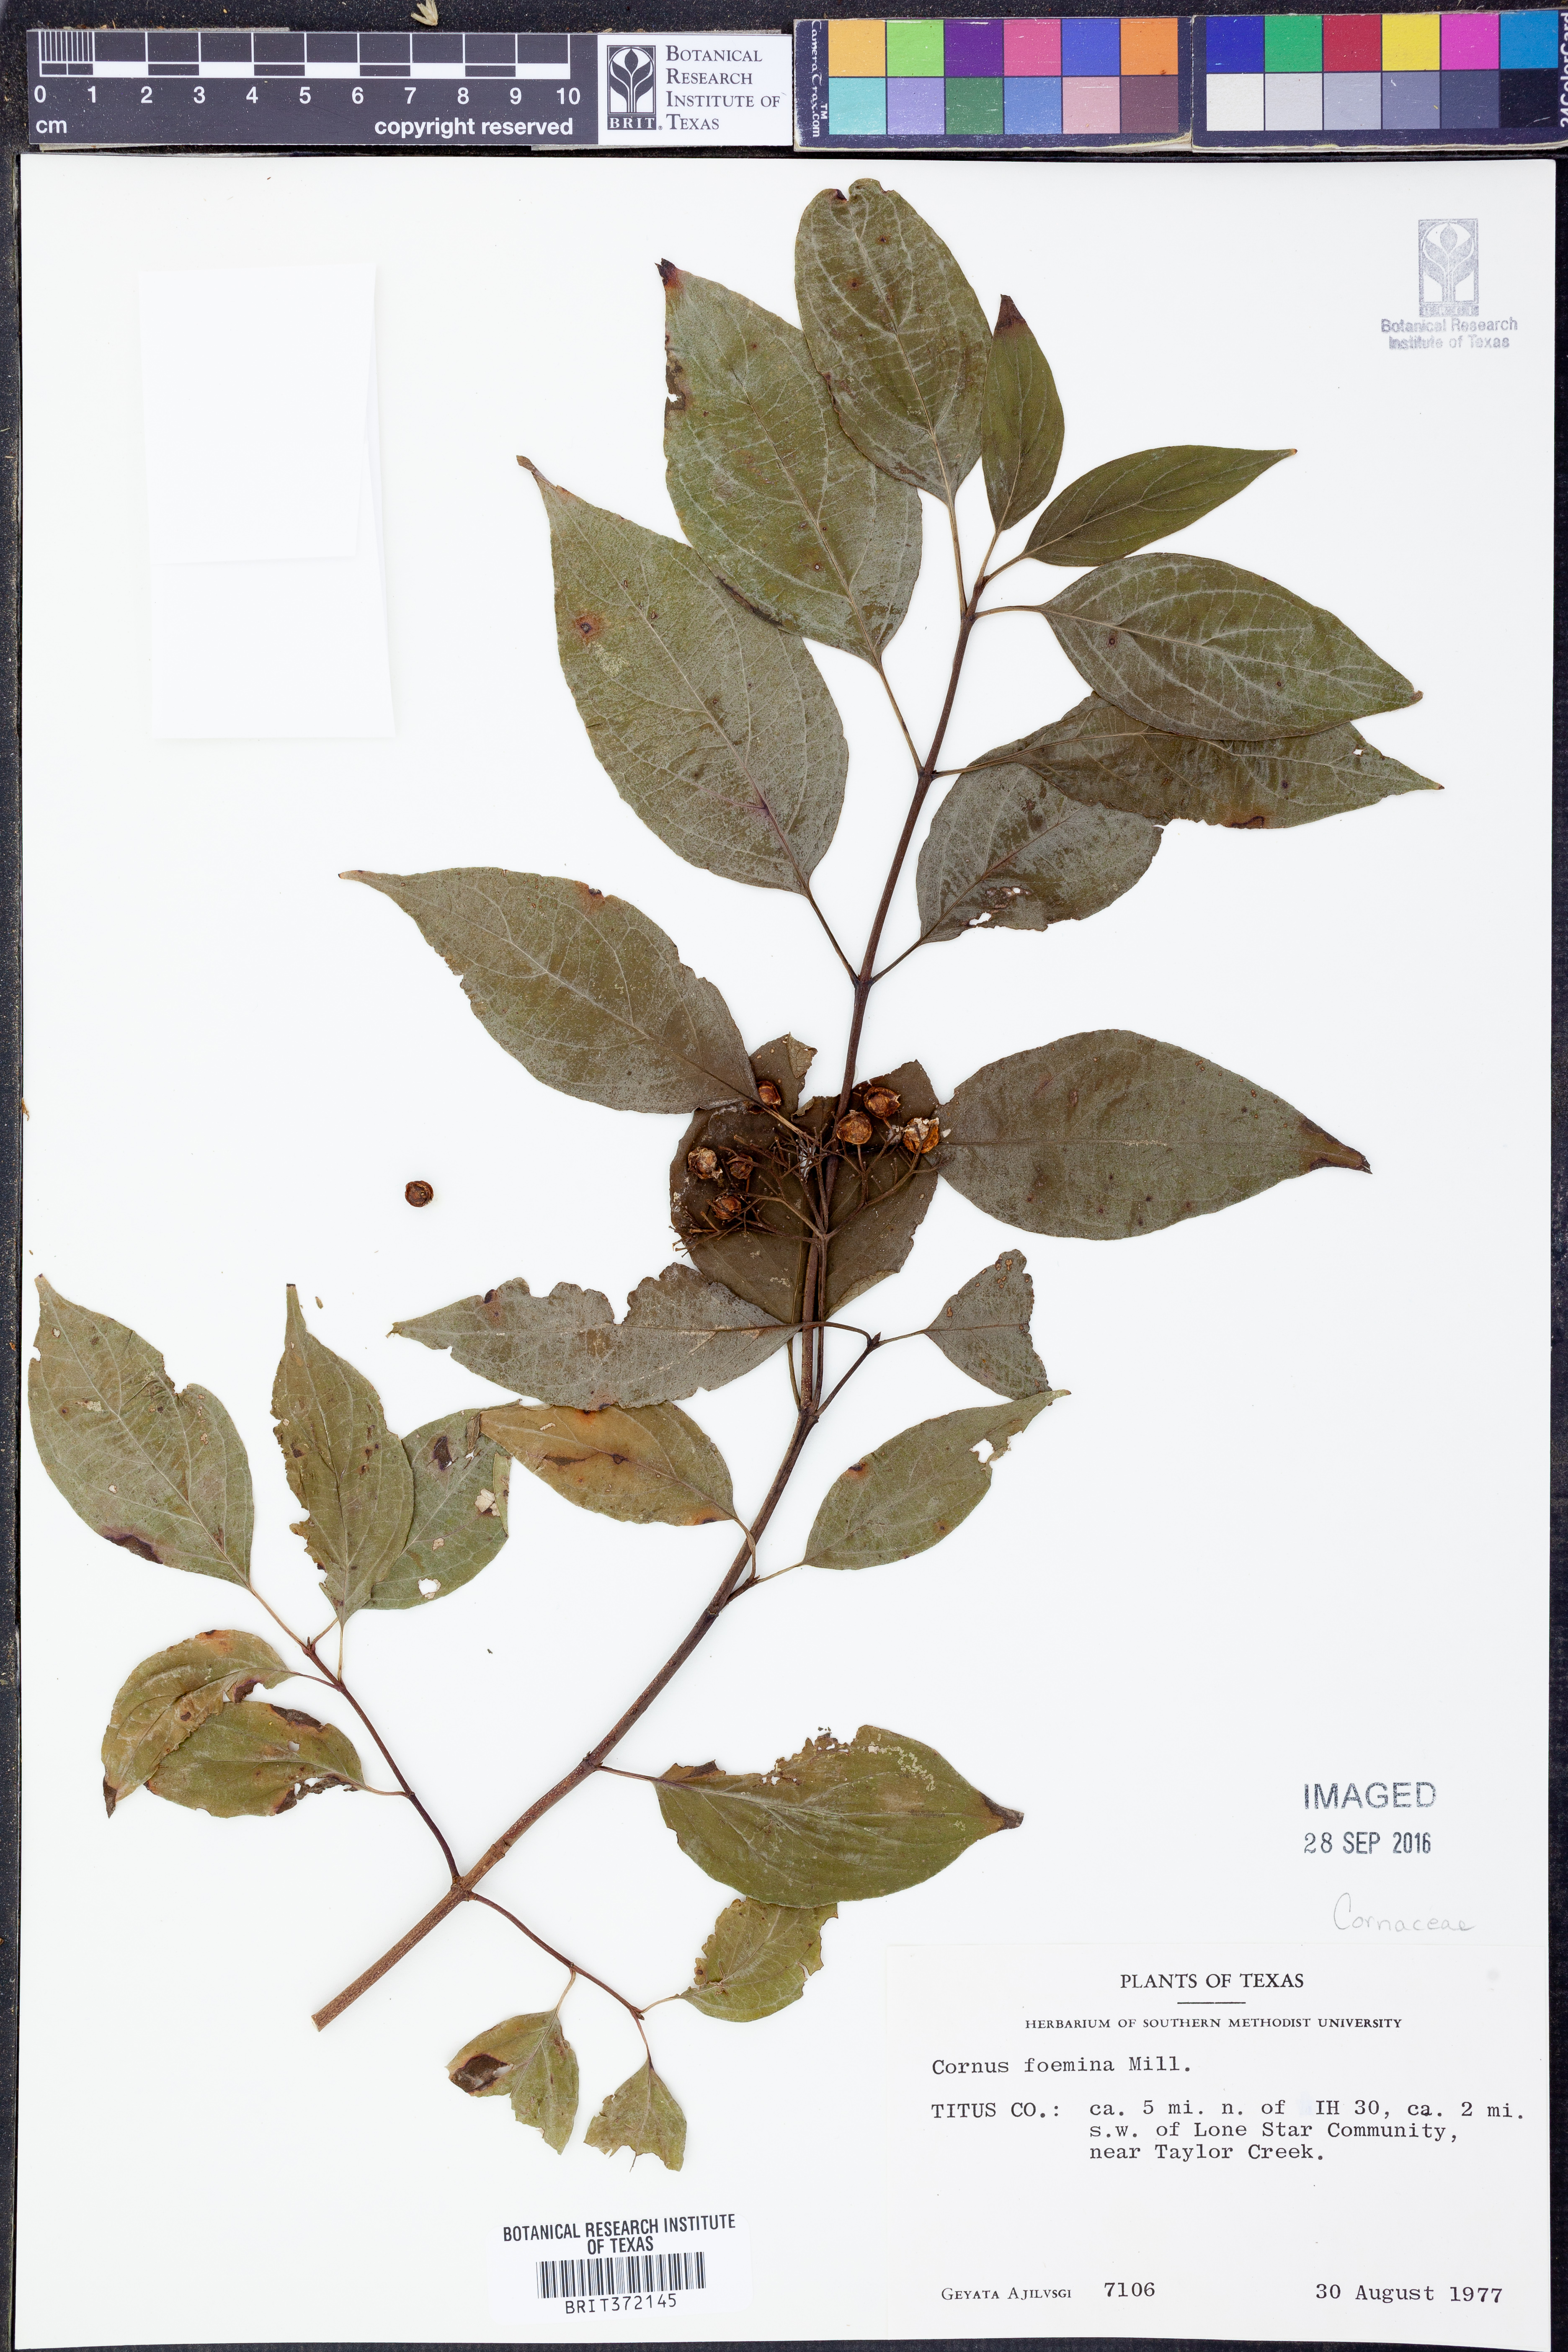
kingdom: Plantae
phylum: Tracheophyta
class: Magnoliopsida
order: Cornales
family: Cornaceae
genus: Cornus
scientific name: Cornus foemina
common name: Swamp dogwood
